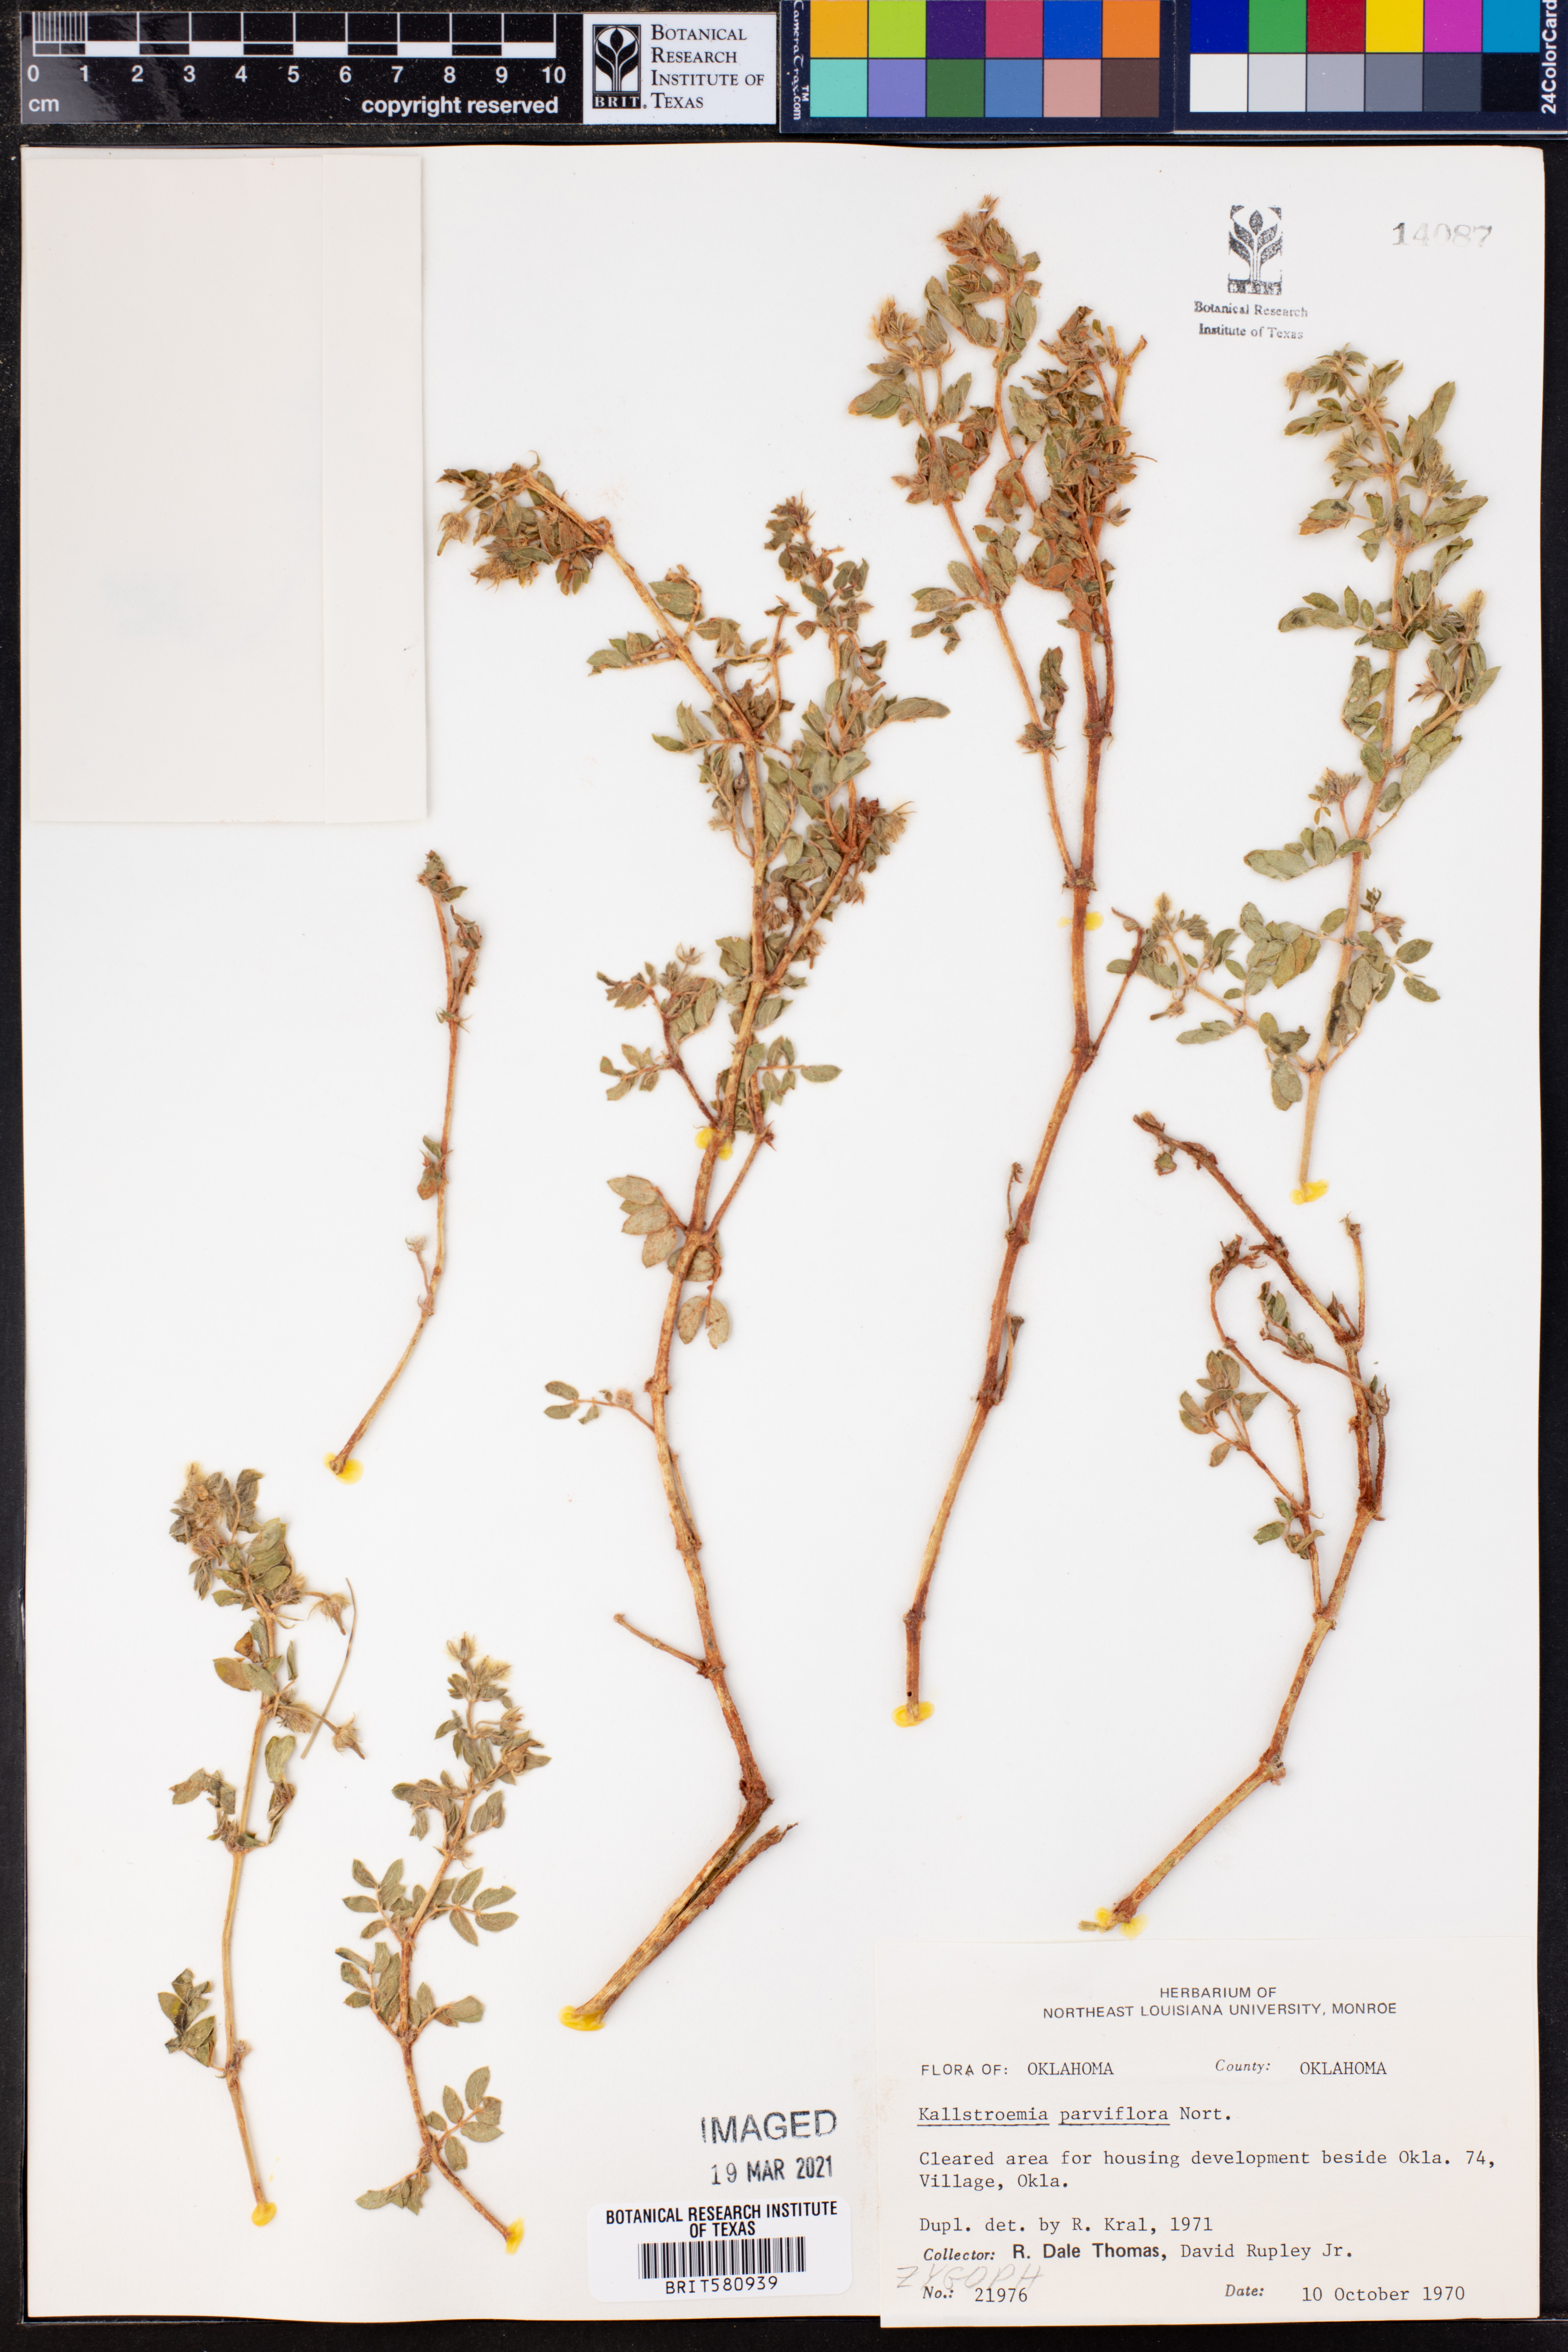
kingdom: Plantae
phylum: Tracheophyta
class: Magnoliopsida
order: Zygophyllales
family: Zygophyllaceae
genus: Kallstroemia
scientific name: Kallstroemia parviflora
